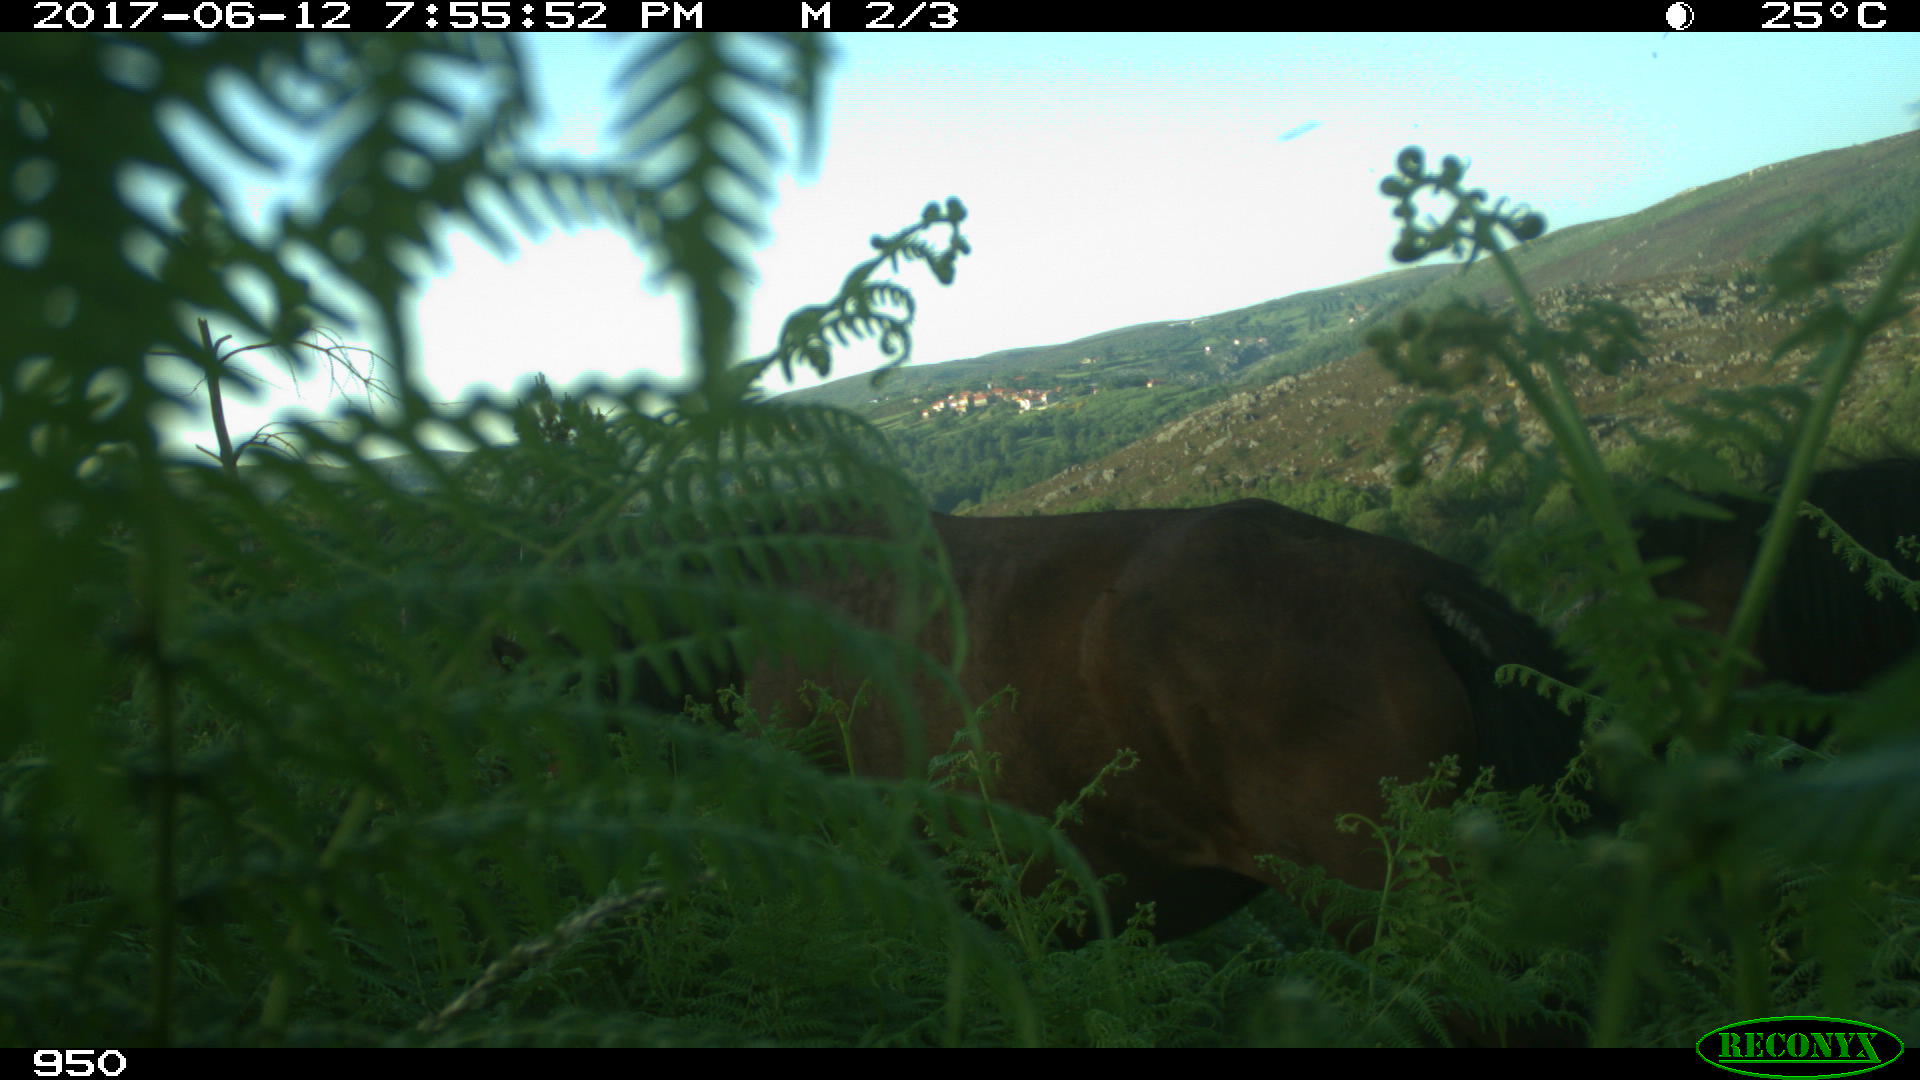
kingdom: Animalia
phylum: Chordata
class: Mammalia
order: Perissodactyla
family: Equidae
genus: Equus
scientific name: Equus caballus
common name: Horse
